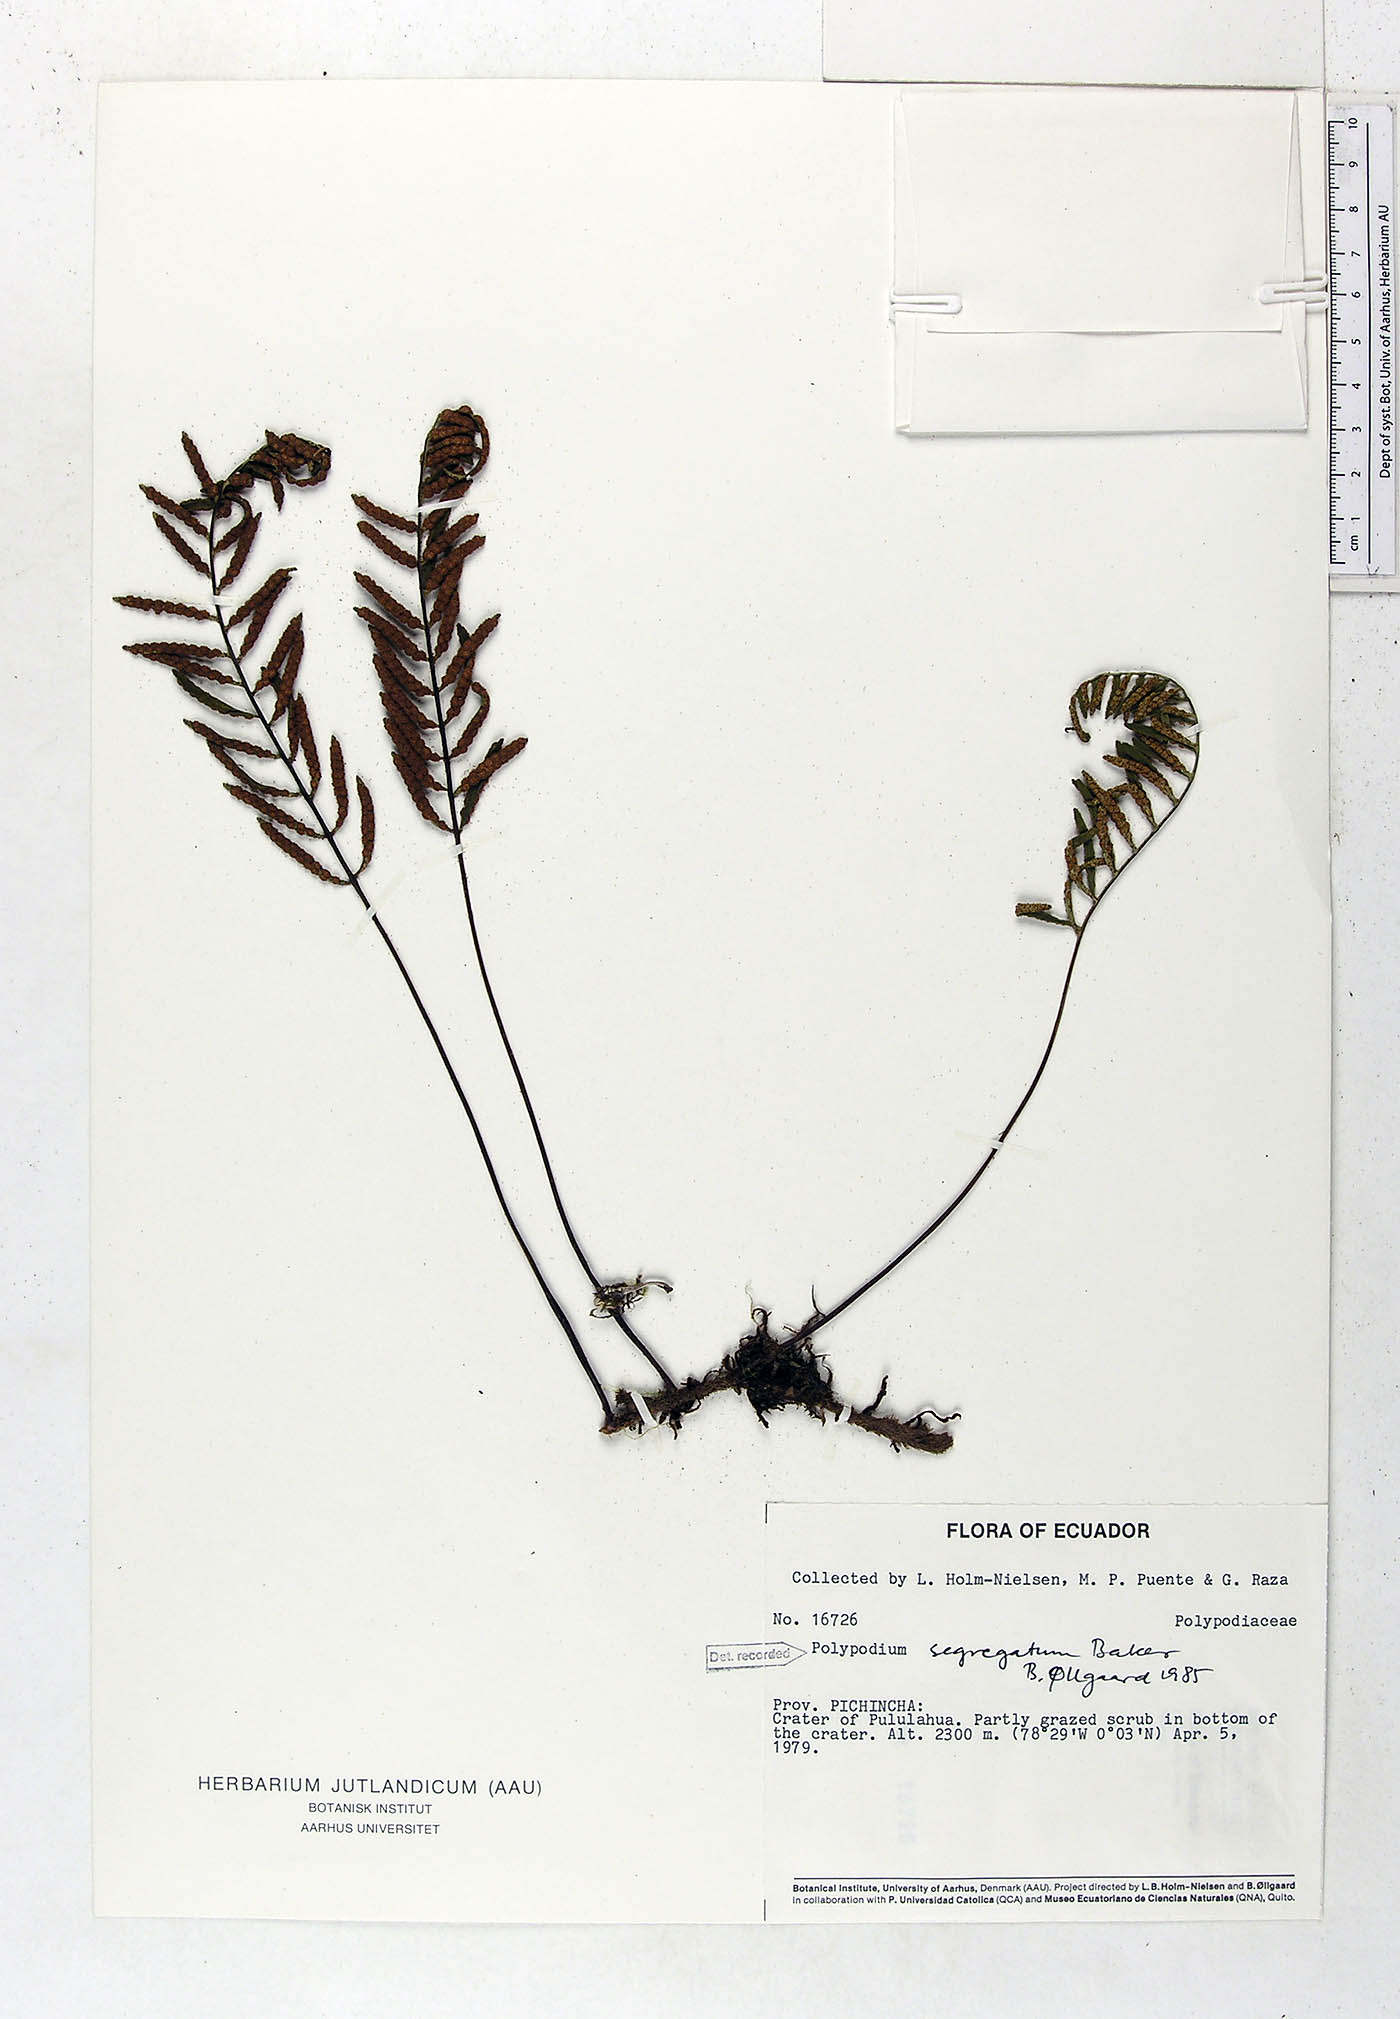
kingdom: Plantae
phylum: Tracheophyta
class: Polypodiopsida
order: Polypodiales
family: Polypodiaceae
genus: Pleopeltis
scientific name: Pleopeltis segregata
